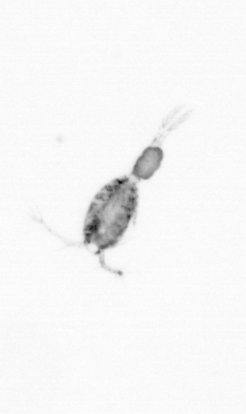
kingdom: Animalia
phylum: Arthropoda
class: Copepoda
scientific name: Copepoda
